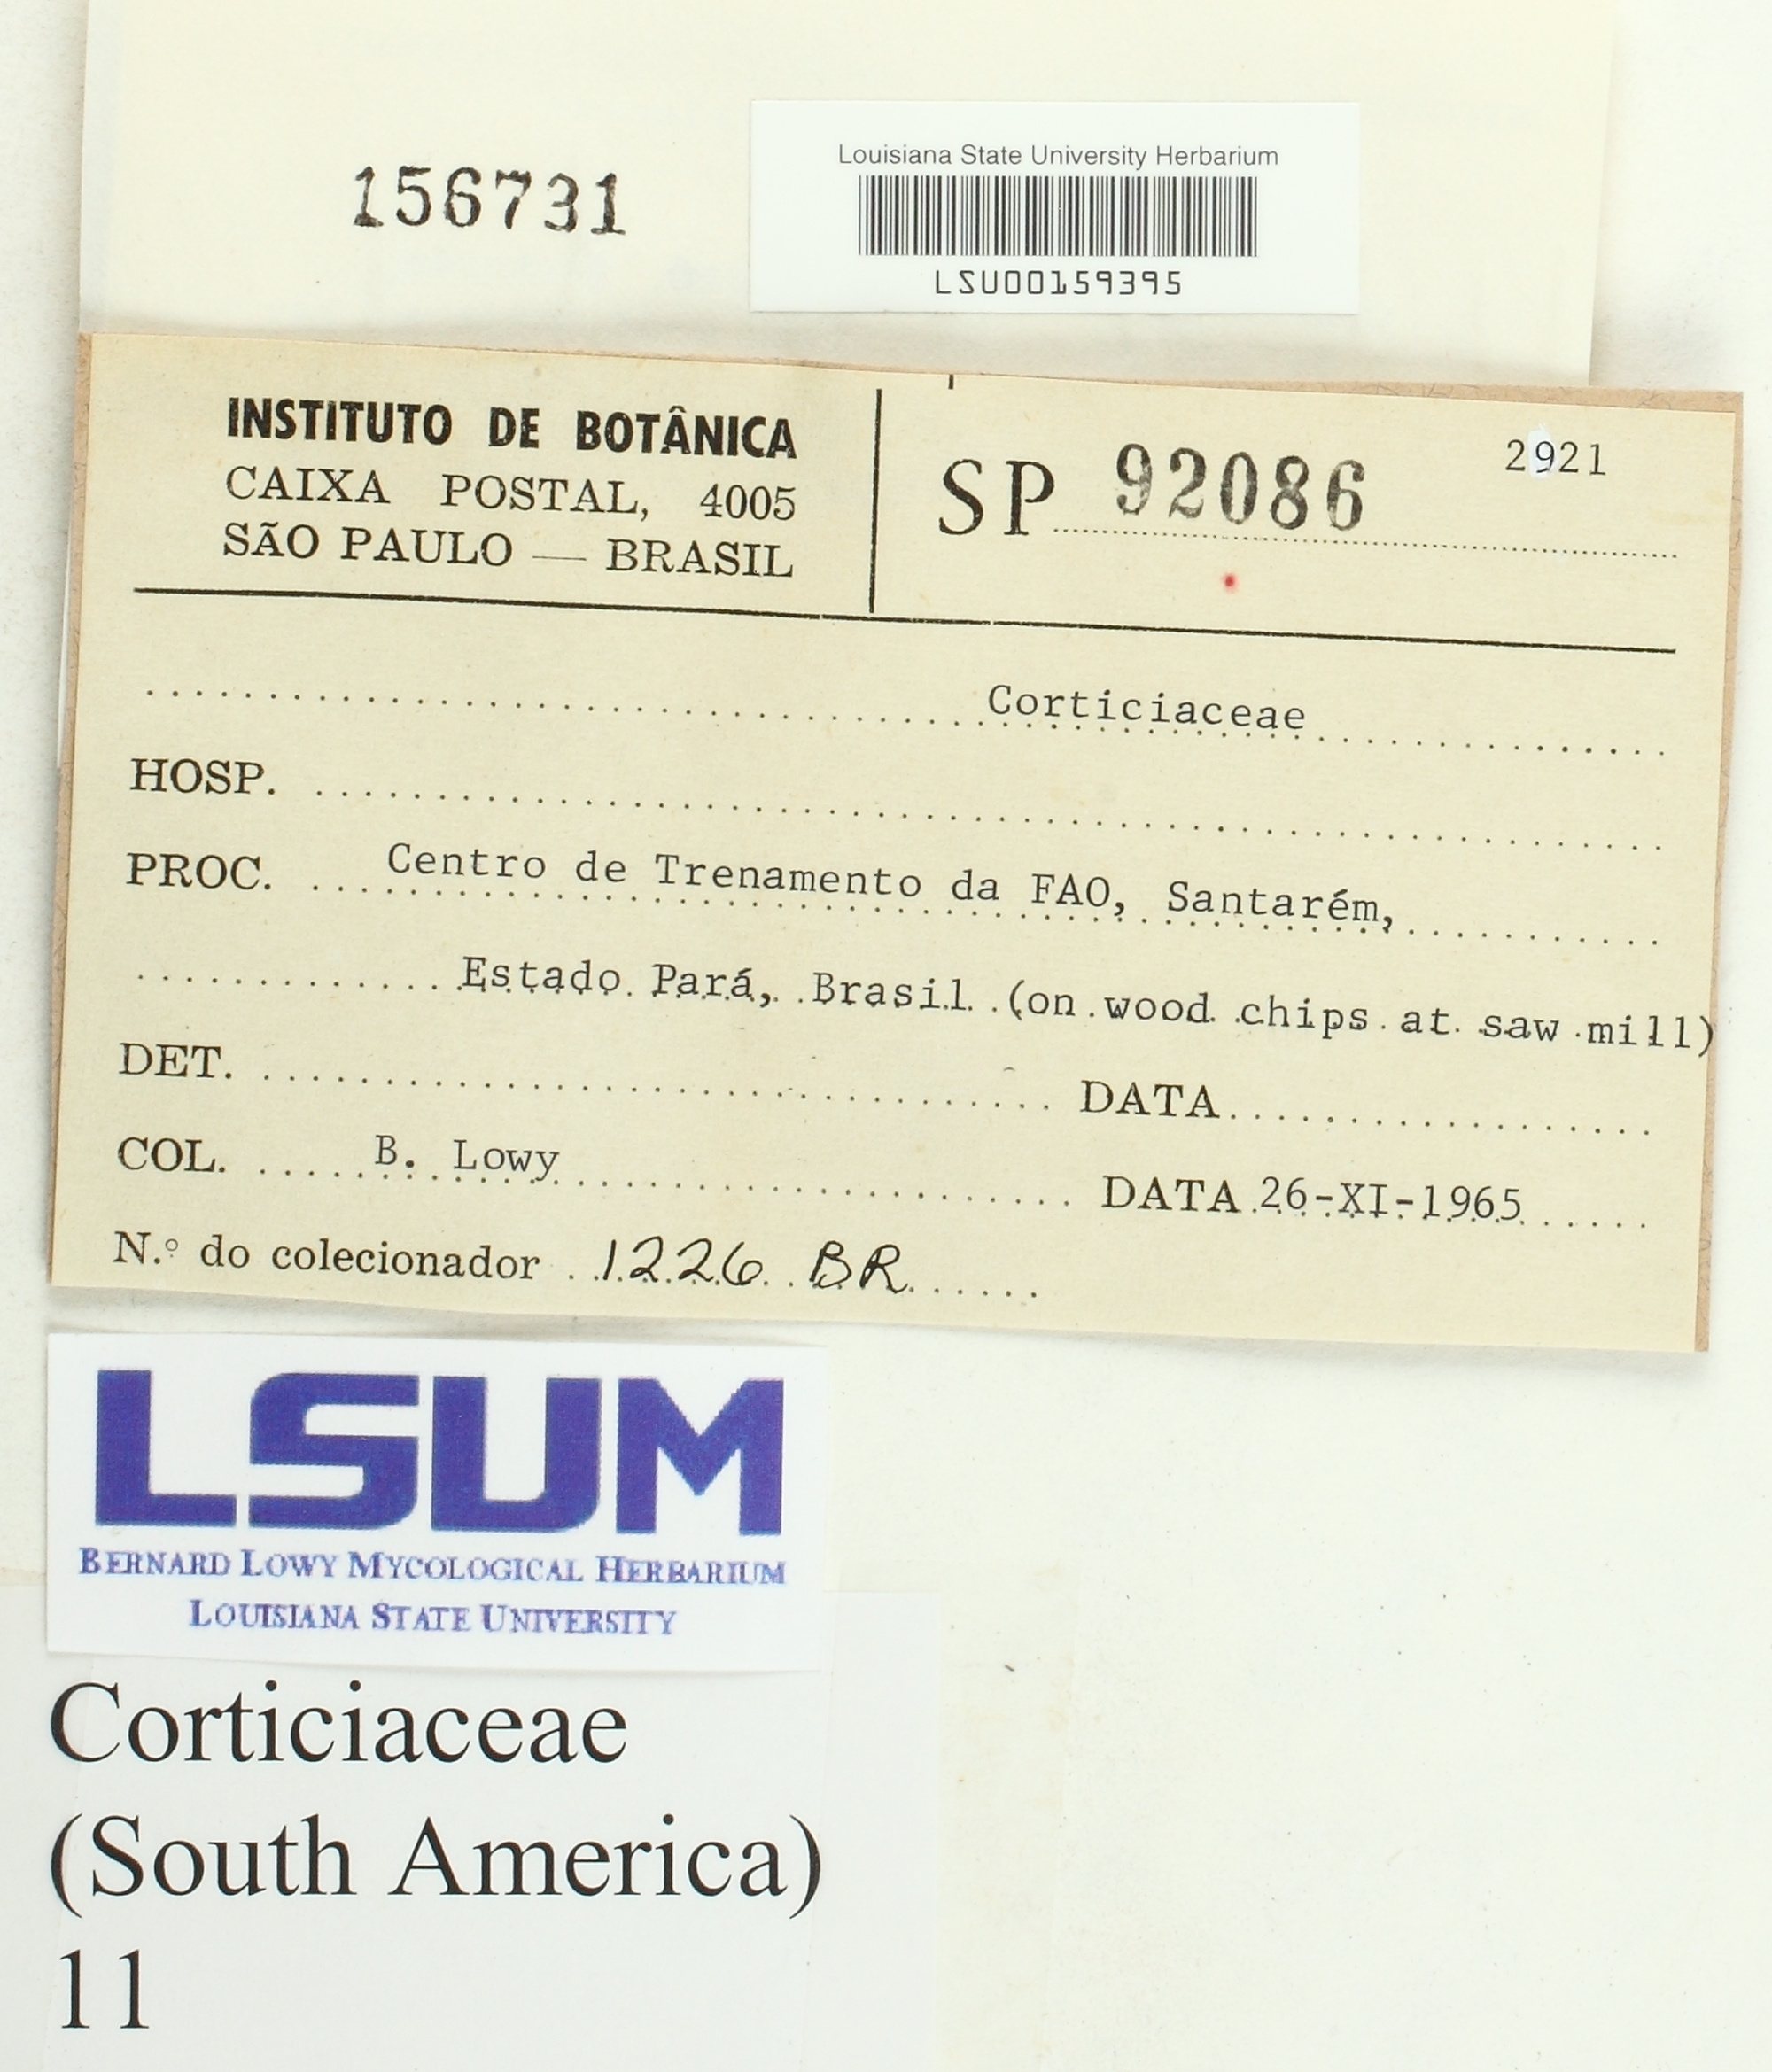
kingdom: Fungi
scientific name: Fungi
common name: Fungi
